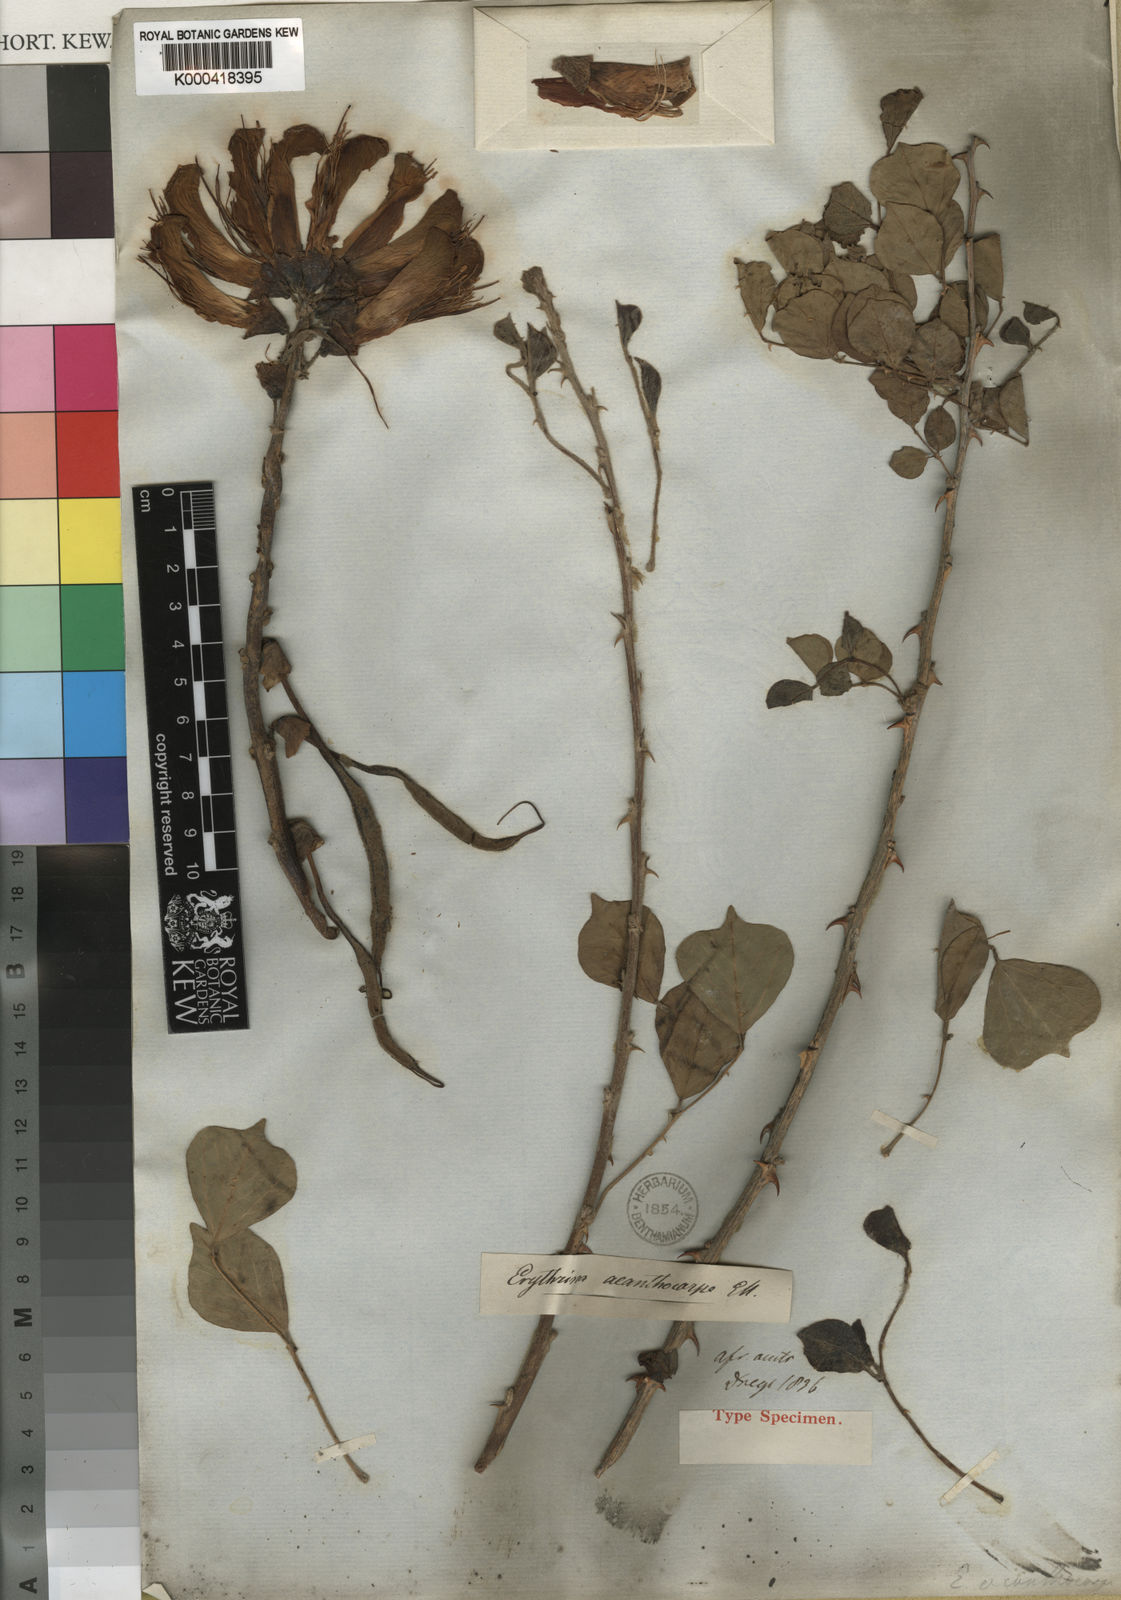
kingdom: Plantae
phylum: Tracheophyta
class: Magnoliopsida
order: Fabales
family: Fabaceae
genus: Erythrina
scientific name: Erythrina acanthocarpa
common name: Thorny coraltree
